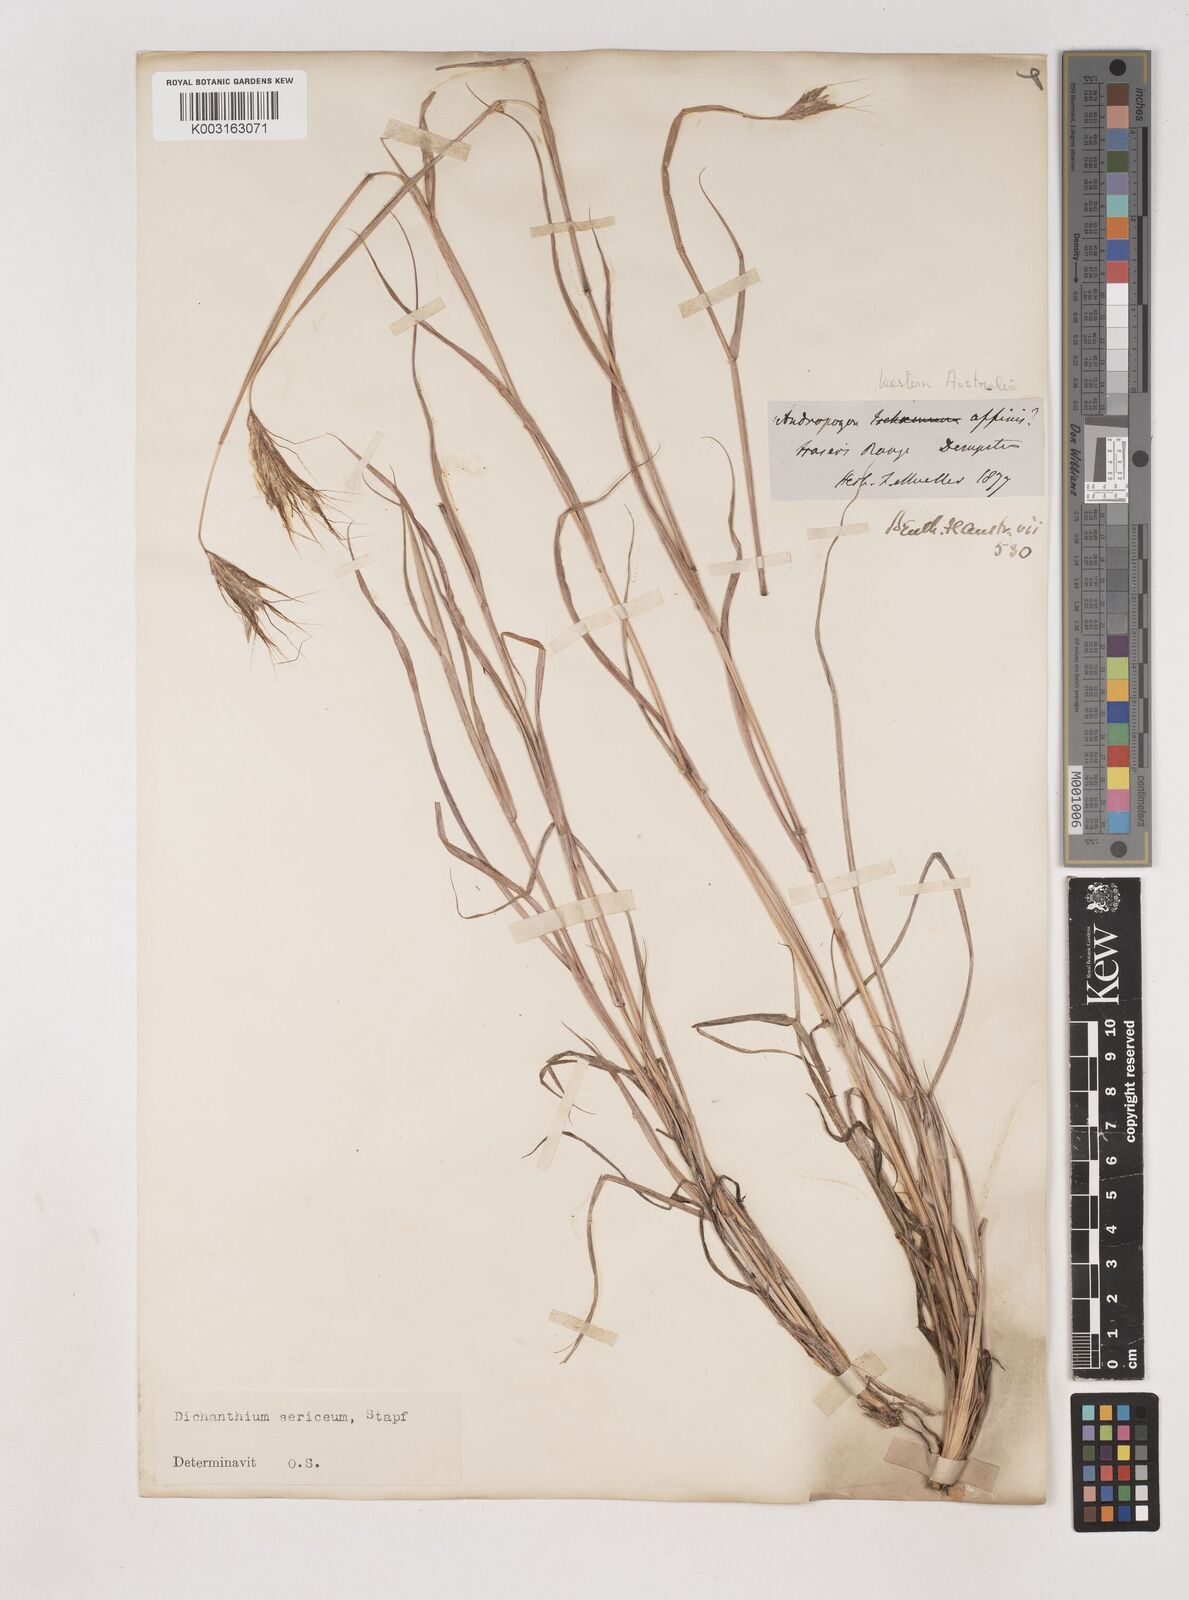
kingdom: Plantae
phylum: Tracheophyta
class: Liliopsida
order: Poales
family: Poaceae
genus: Dichanthium
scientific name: Dichanthium sericeum
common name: Silky bluestem
